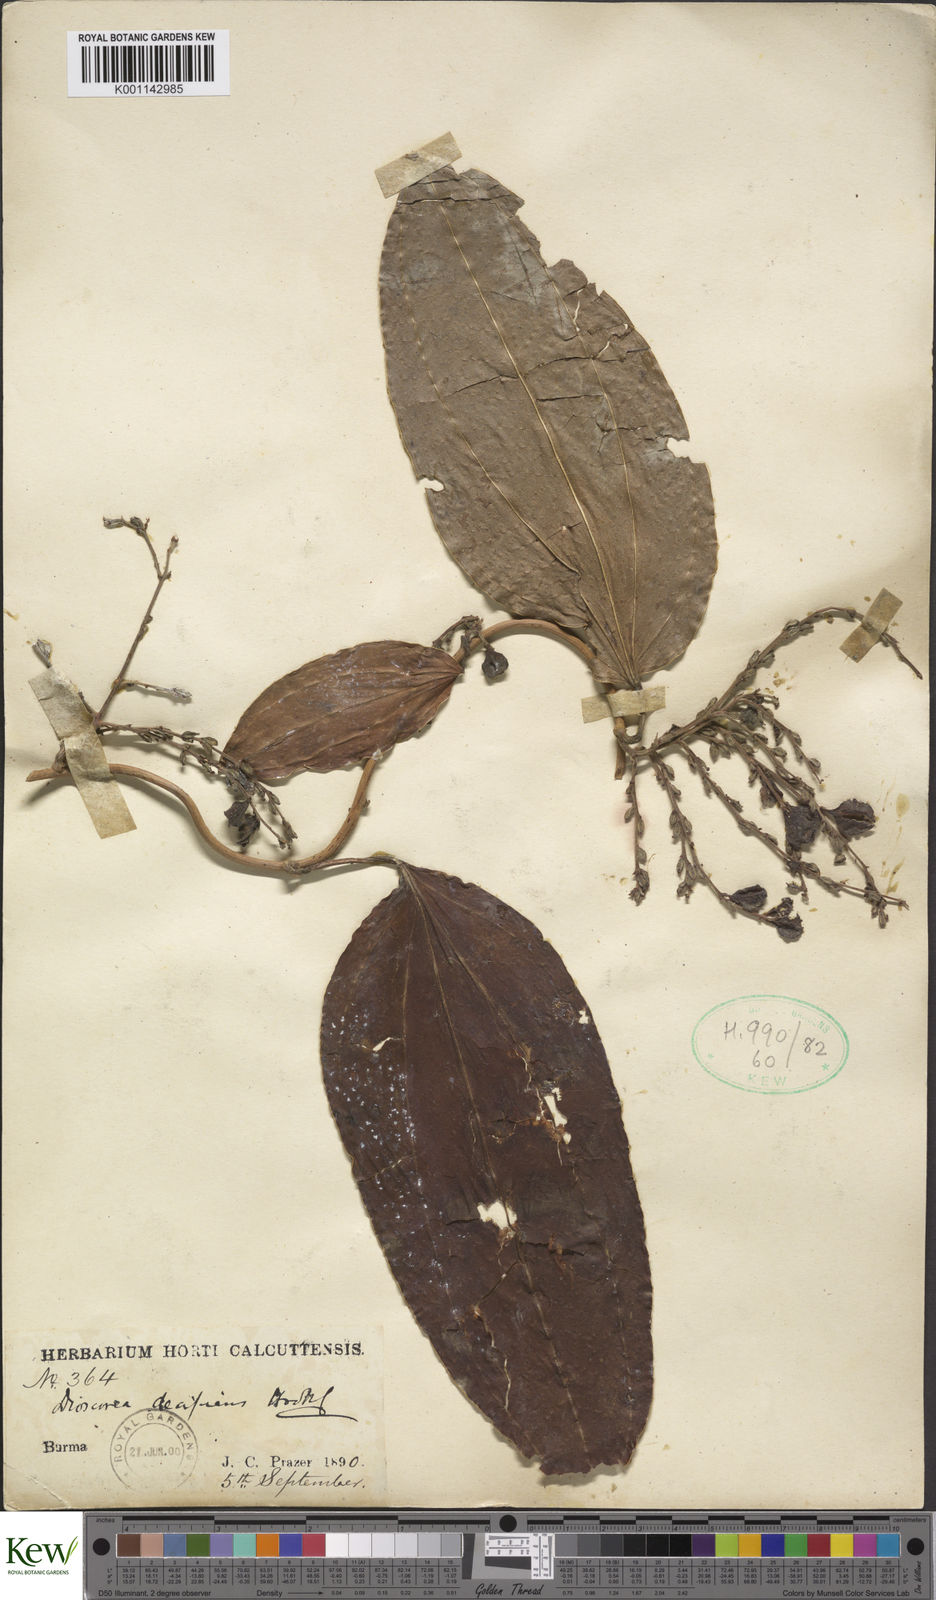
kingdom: Plantae
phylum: Tracheophyta
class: Liliopsida
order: Dioscoreales
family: Dioscoreaceae
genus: Dioscorea
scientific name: Dioscorea decipiens
